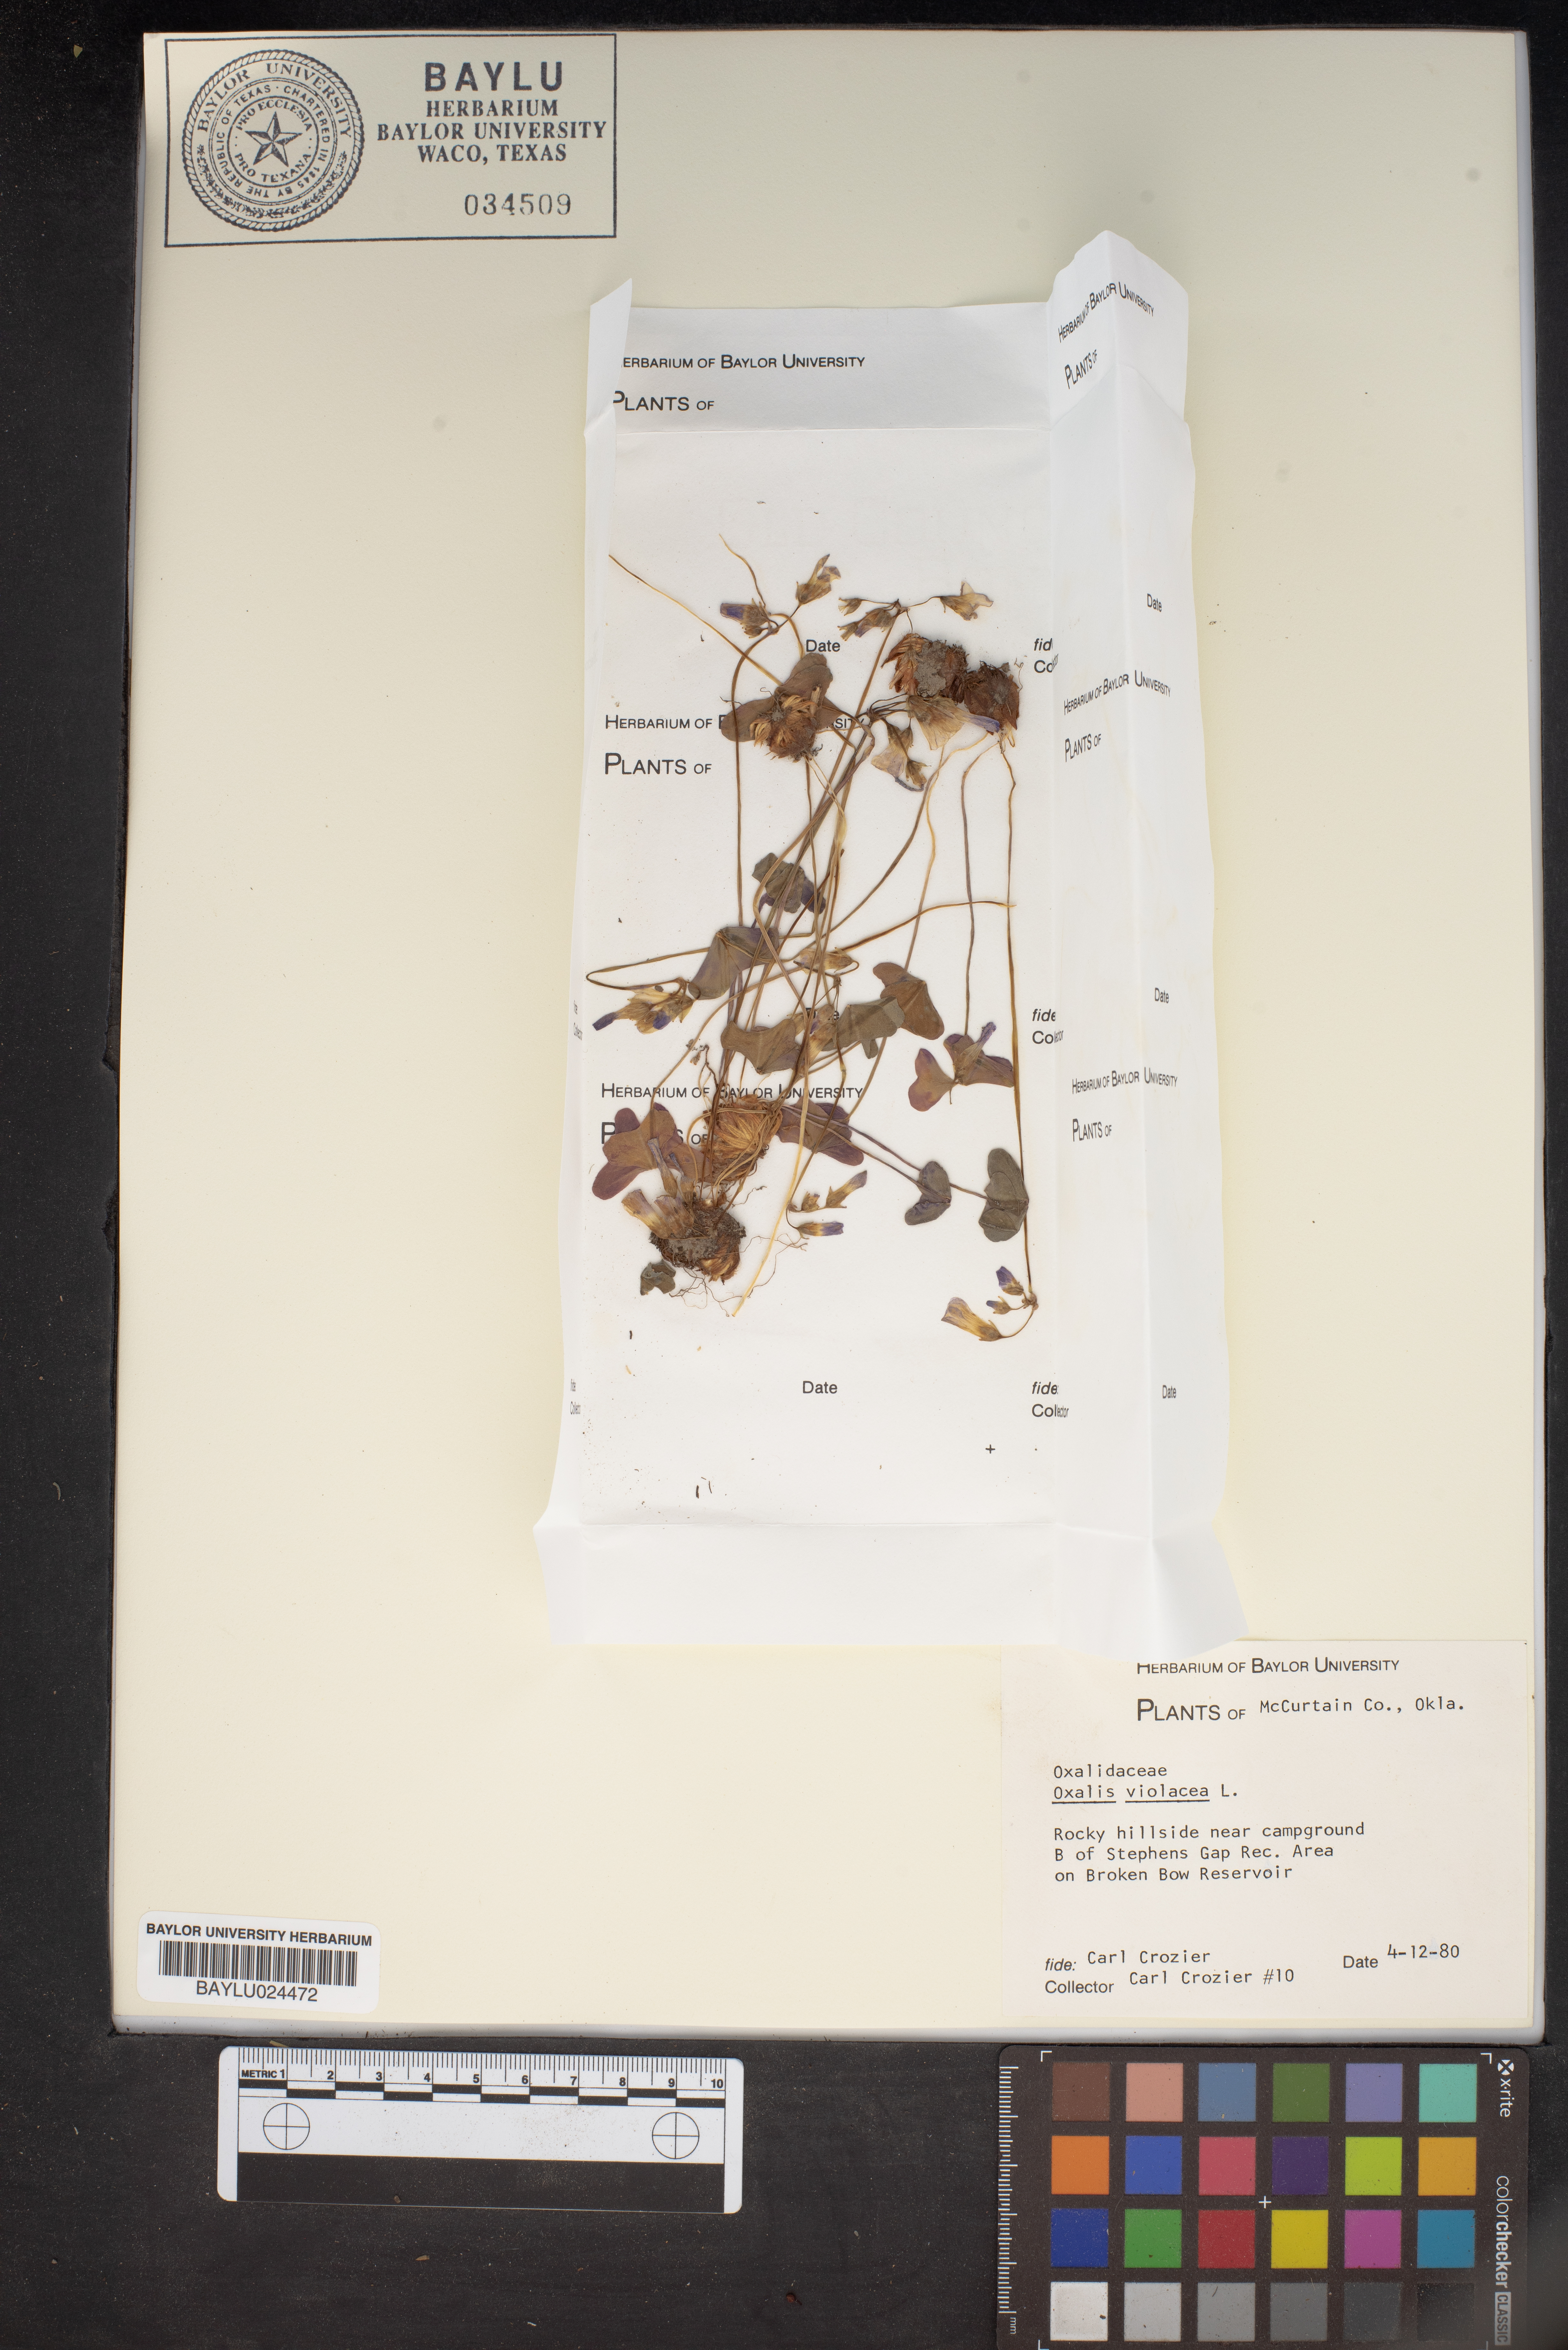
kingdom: Plantae
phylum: Tracheophyta
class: Magnoliopsida
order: Oxalidales
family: Oxalidaceae
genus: Oxalis
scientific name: Oxalis violacea
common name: Violet wood-sorrel
